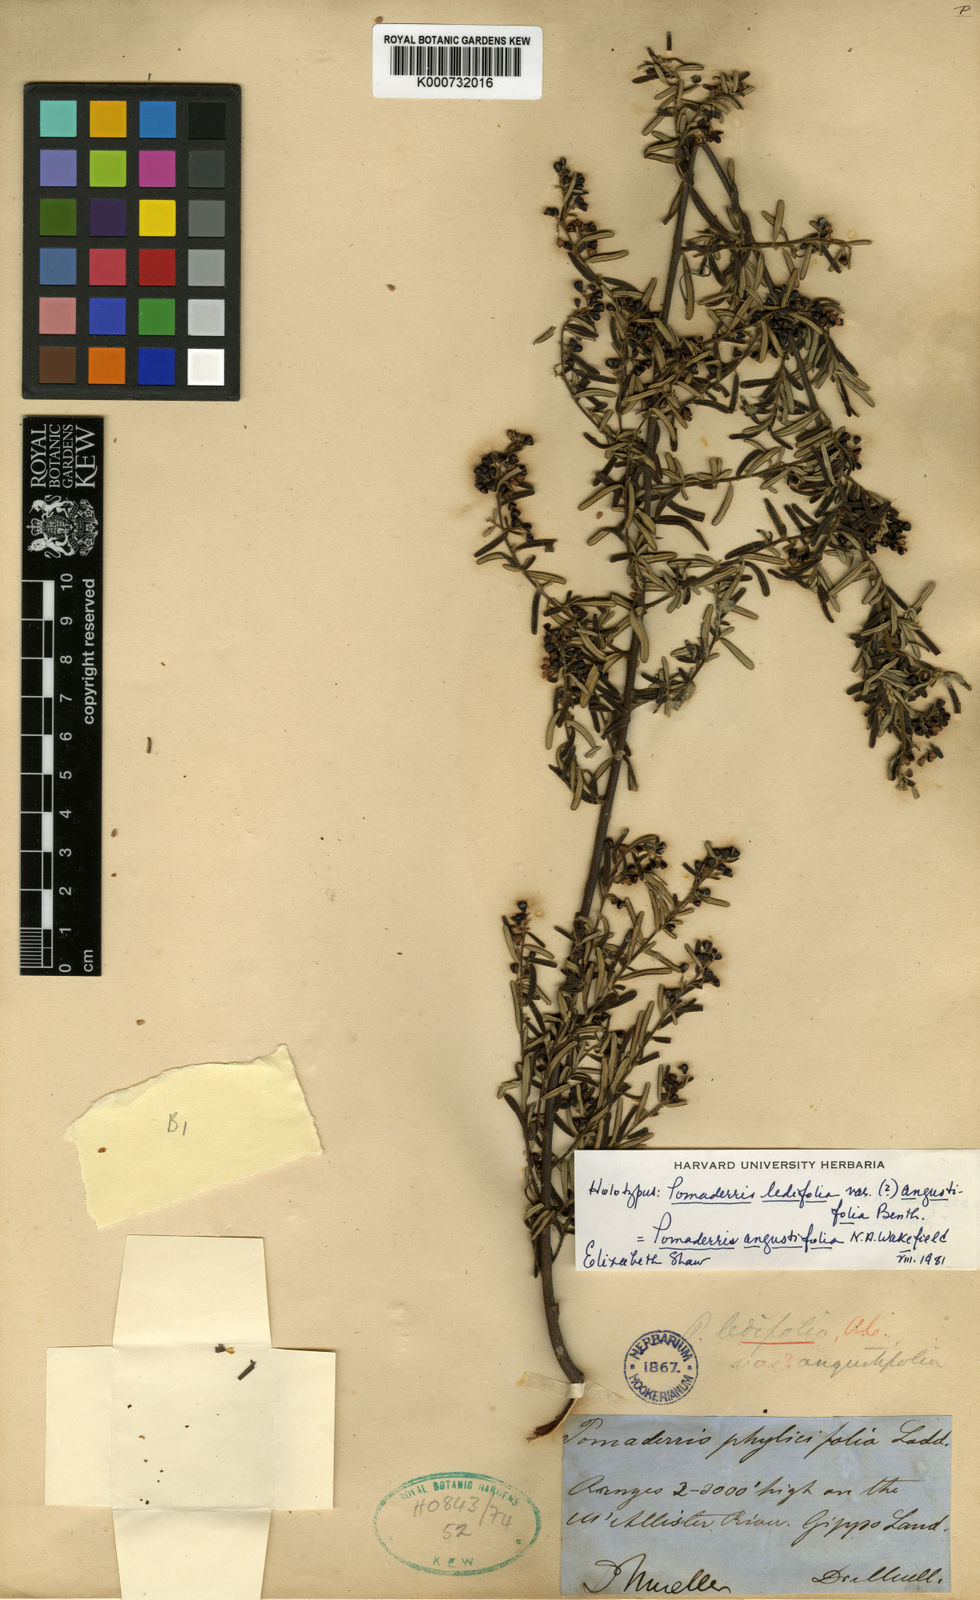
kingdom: Plantae
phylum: Tracheophyta
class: Magnoliopsida
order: Rosales
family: Rhamnaceae
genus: Pomaderris
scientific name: Pomaderris intermedia
